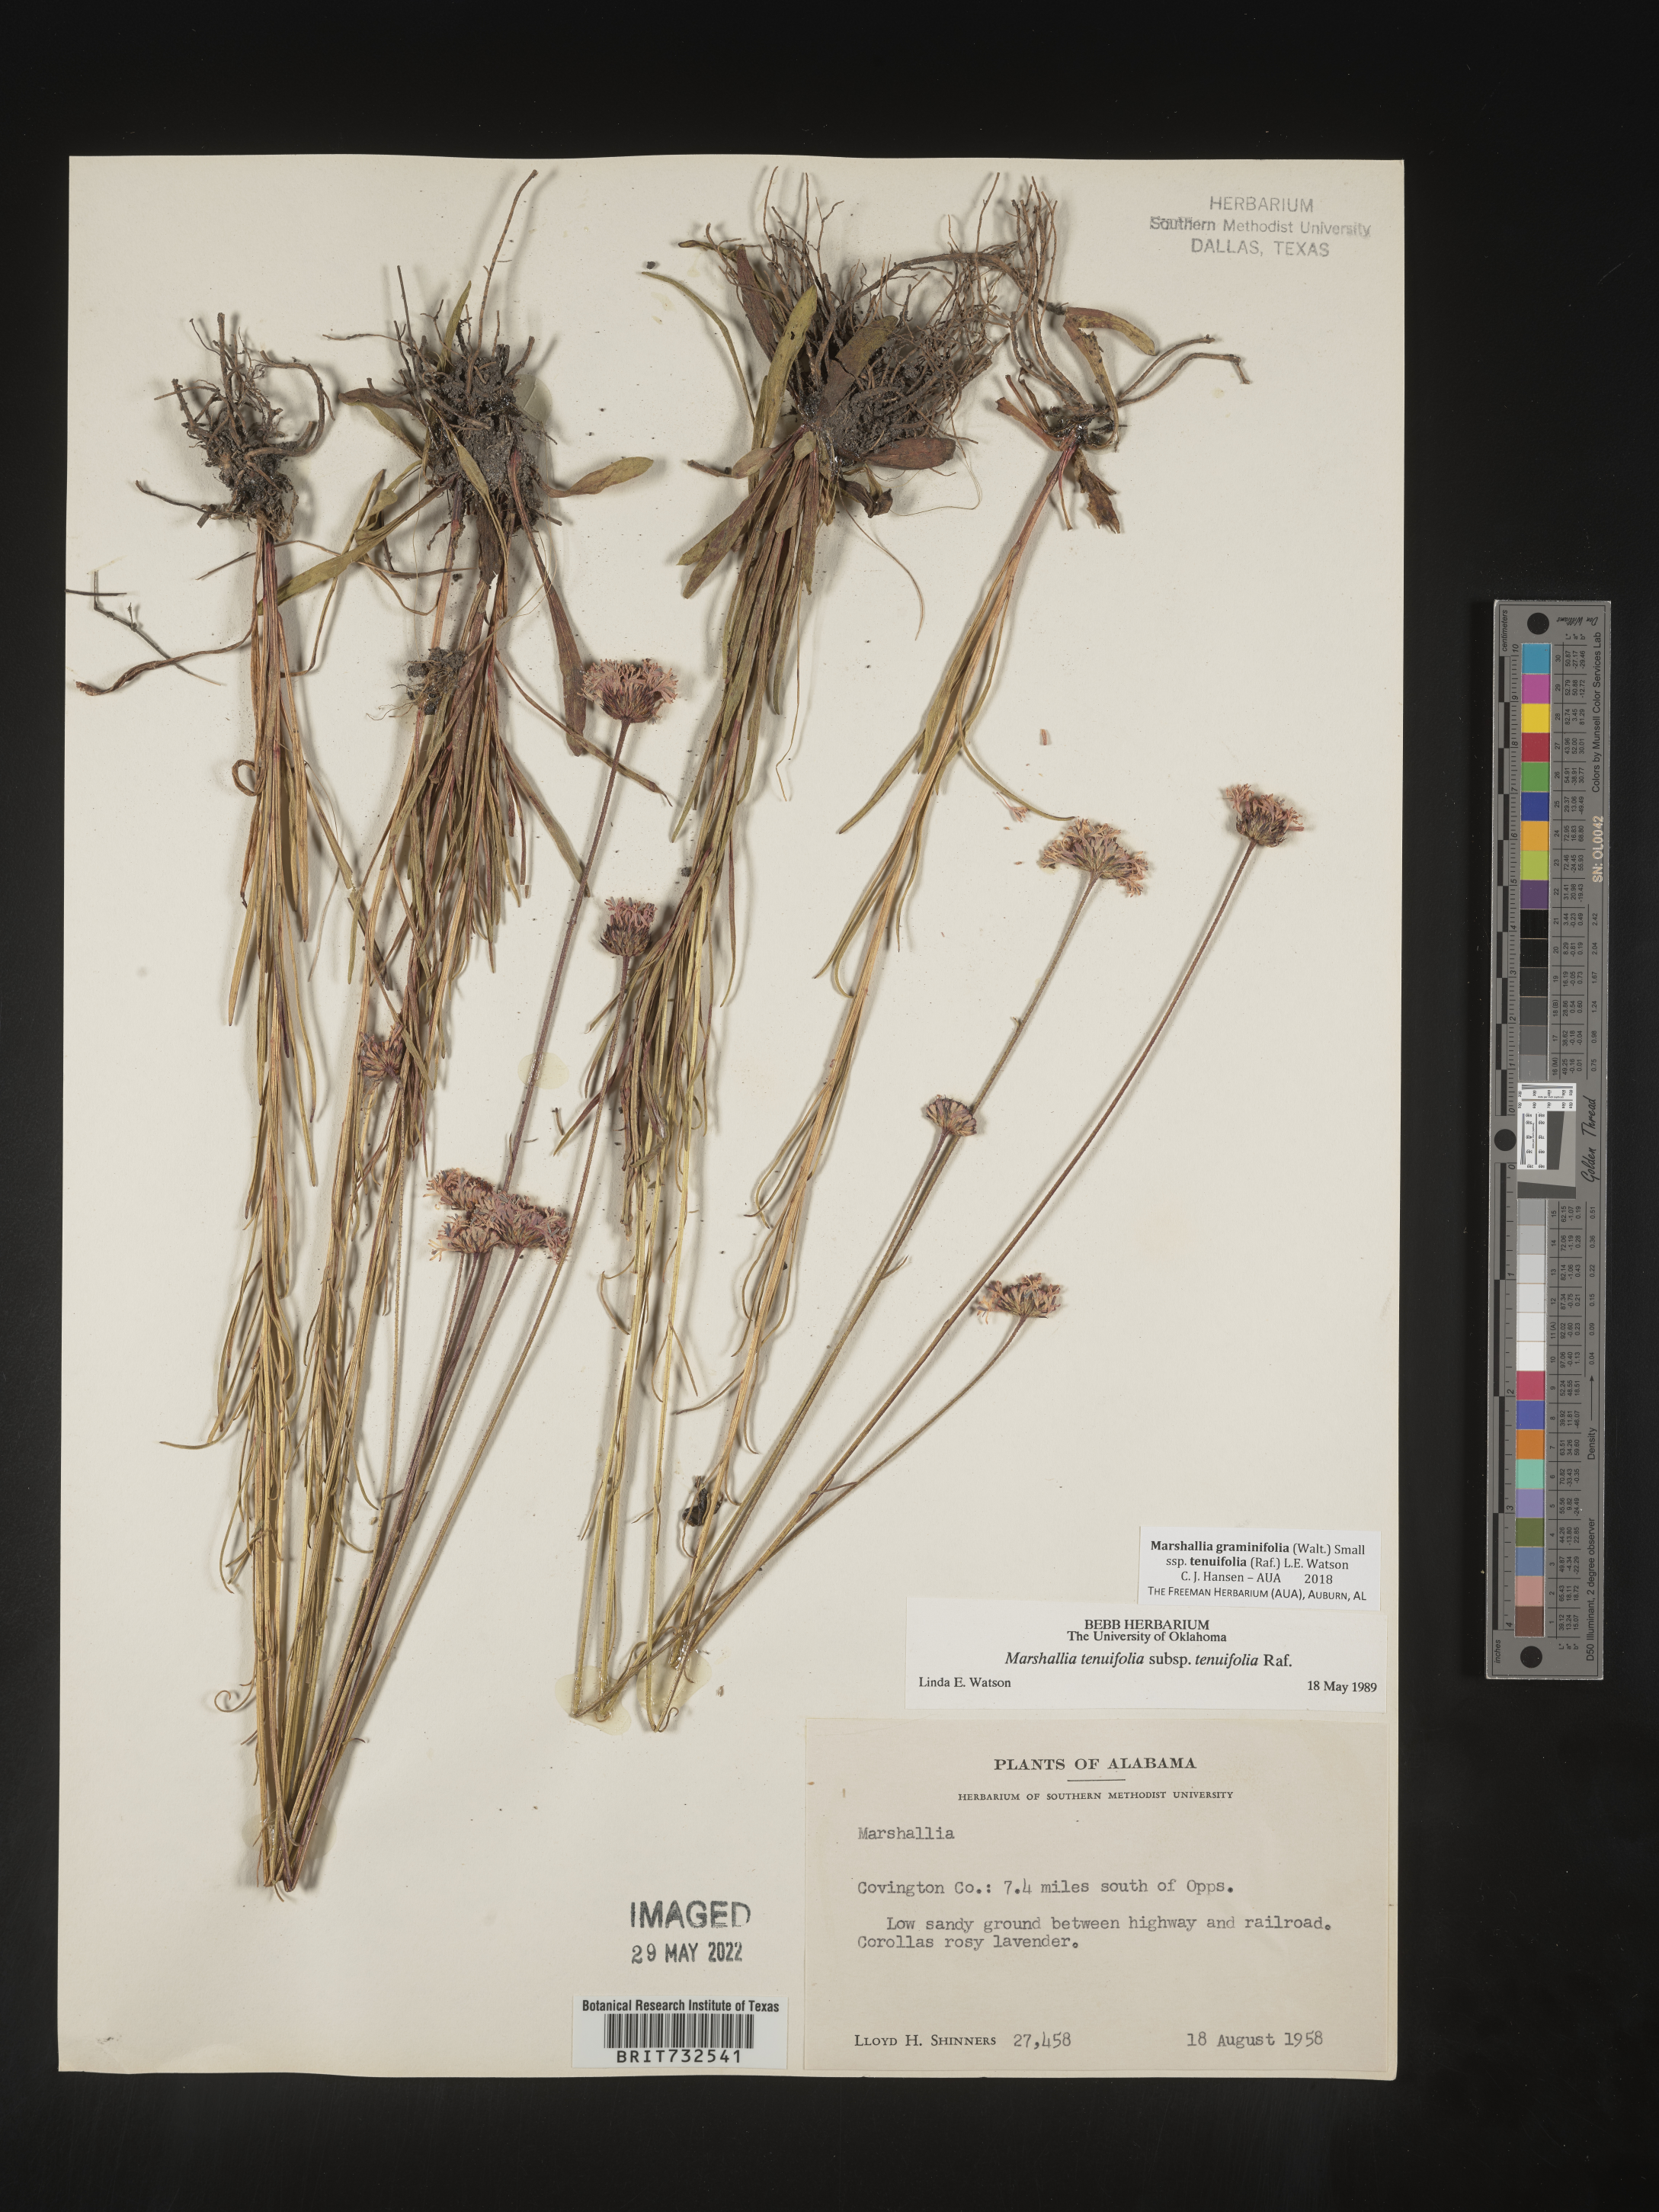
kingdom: Plantae
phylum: Tracheophyta
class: Magnoliopsida
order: Asterales
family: Asteraceae
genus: Marshallia
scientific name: Marshallia graminifolia
